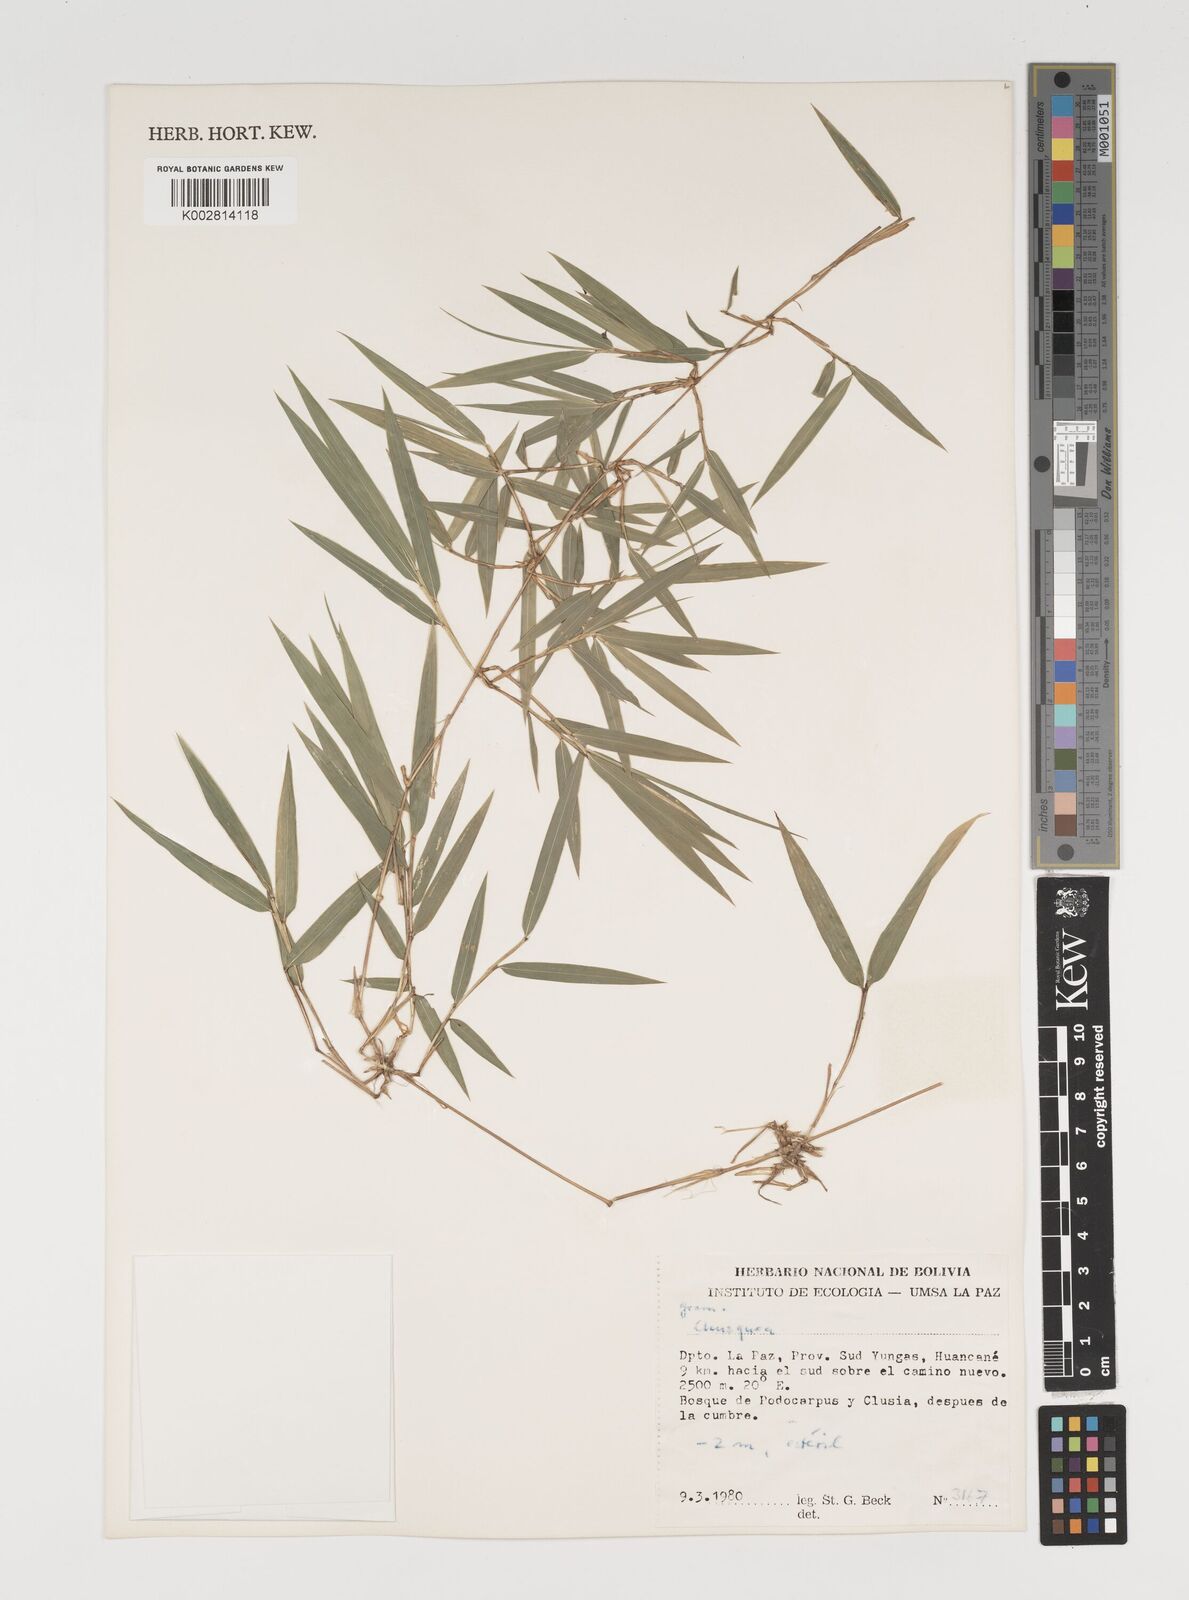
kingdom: Plantae
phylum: Tracheophyta
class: Liliopsida
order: Poales
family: Poaceae
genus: Chusquea
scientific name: Chusquea
